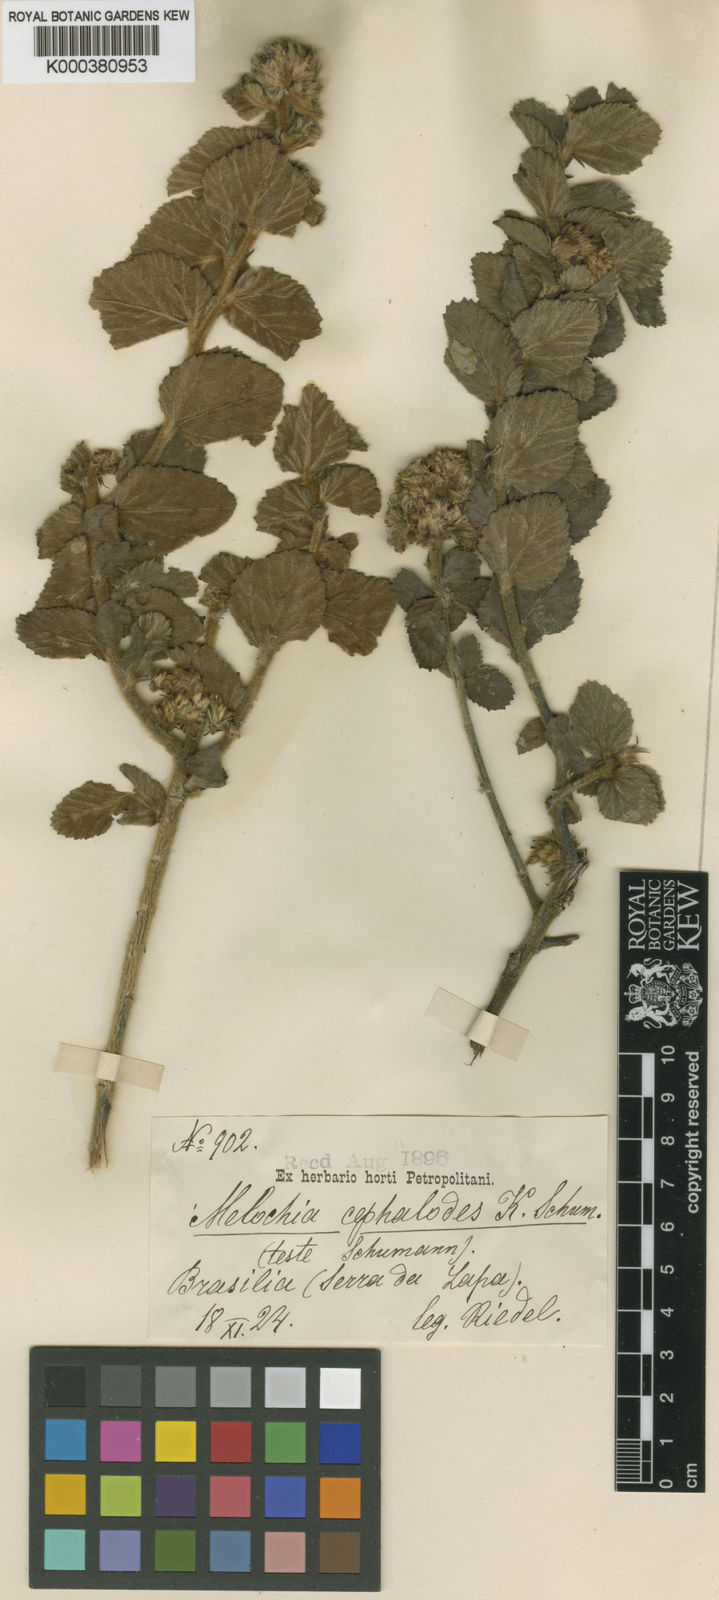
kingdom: Plantae
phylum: Tracheophyta
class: Magnoliopsida
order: Malvales
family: Malvaceae
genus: Melochia
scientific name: Melochia spicata
